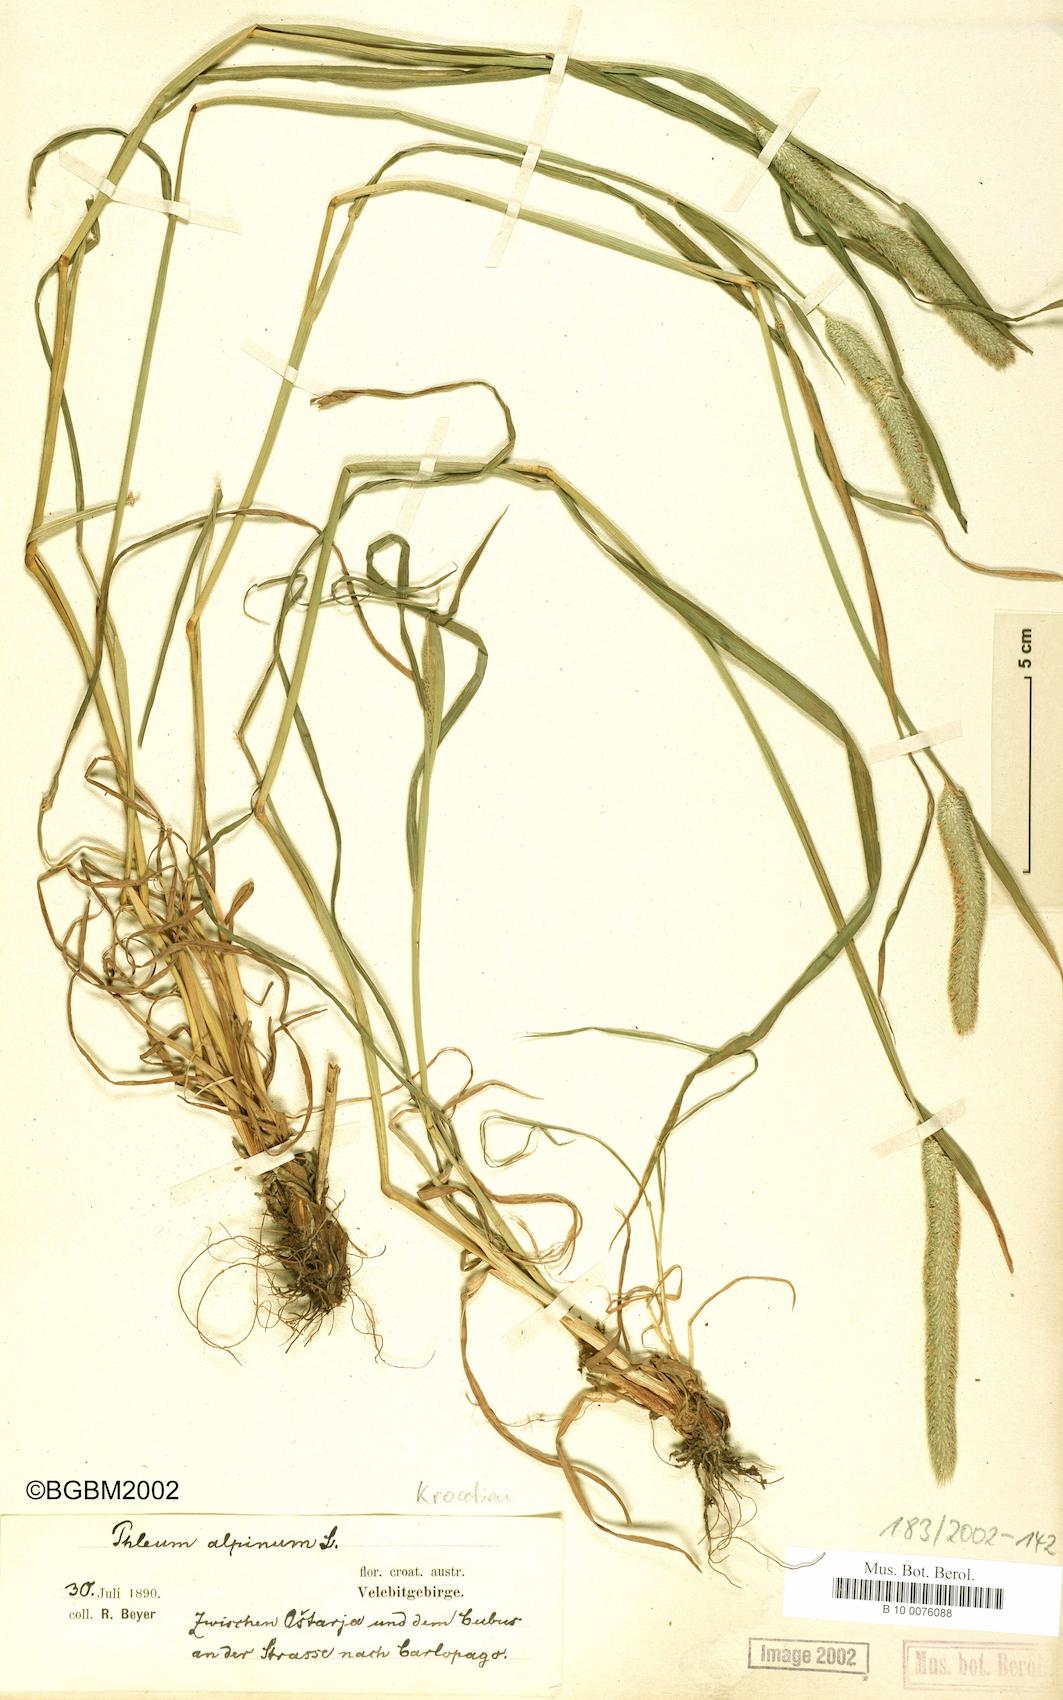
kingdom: Plantae
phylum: Tracheophyta
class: Liliopsida
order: Poales
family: Poaceae
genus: Phleum
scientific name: Phleum alpinum
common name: Alpine cat's-tail
